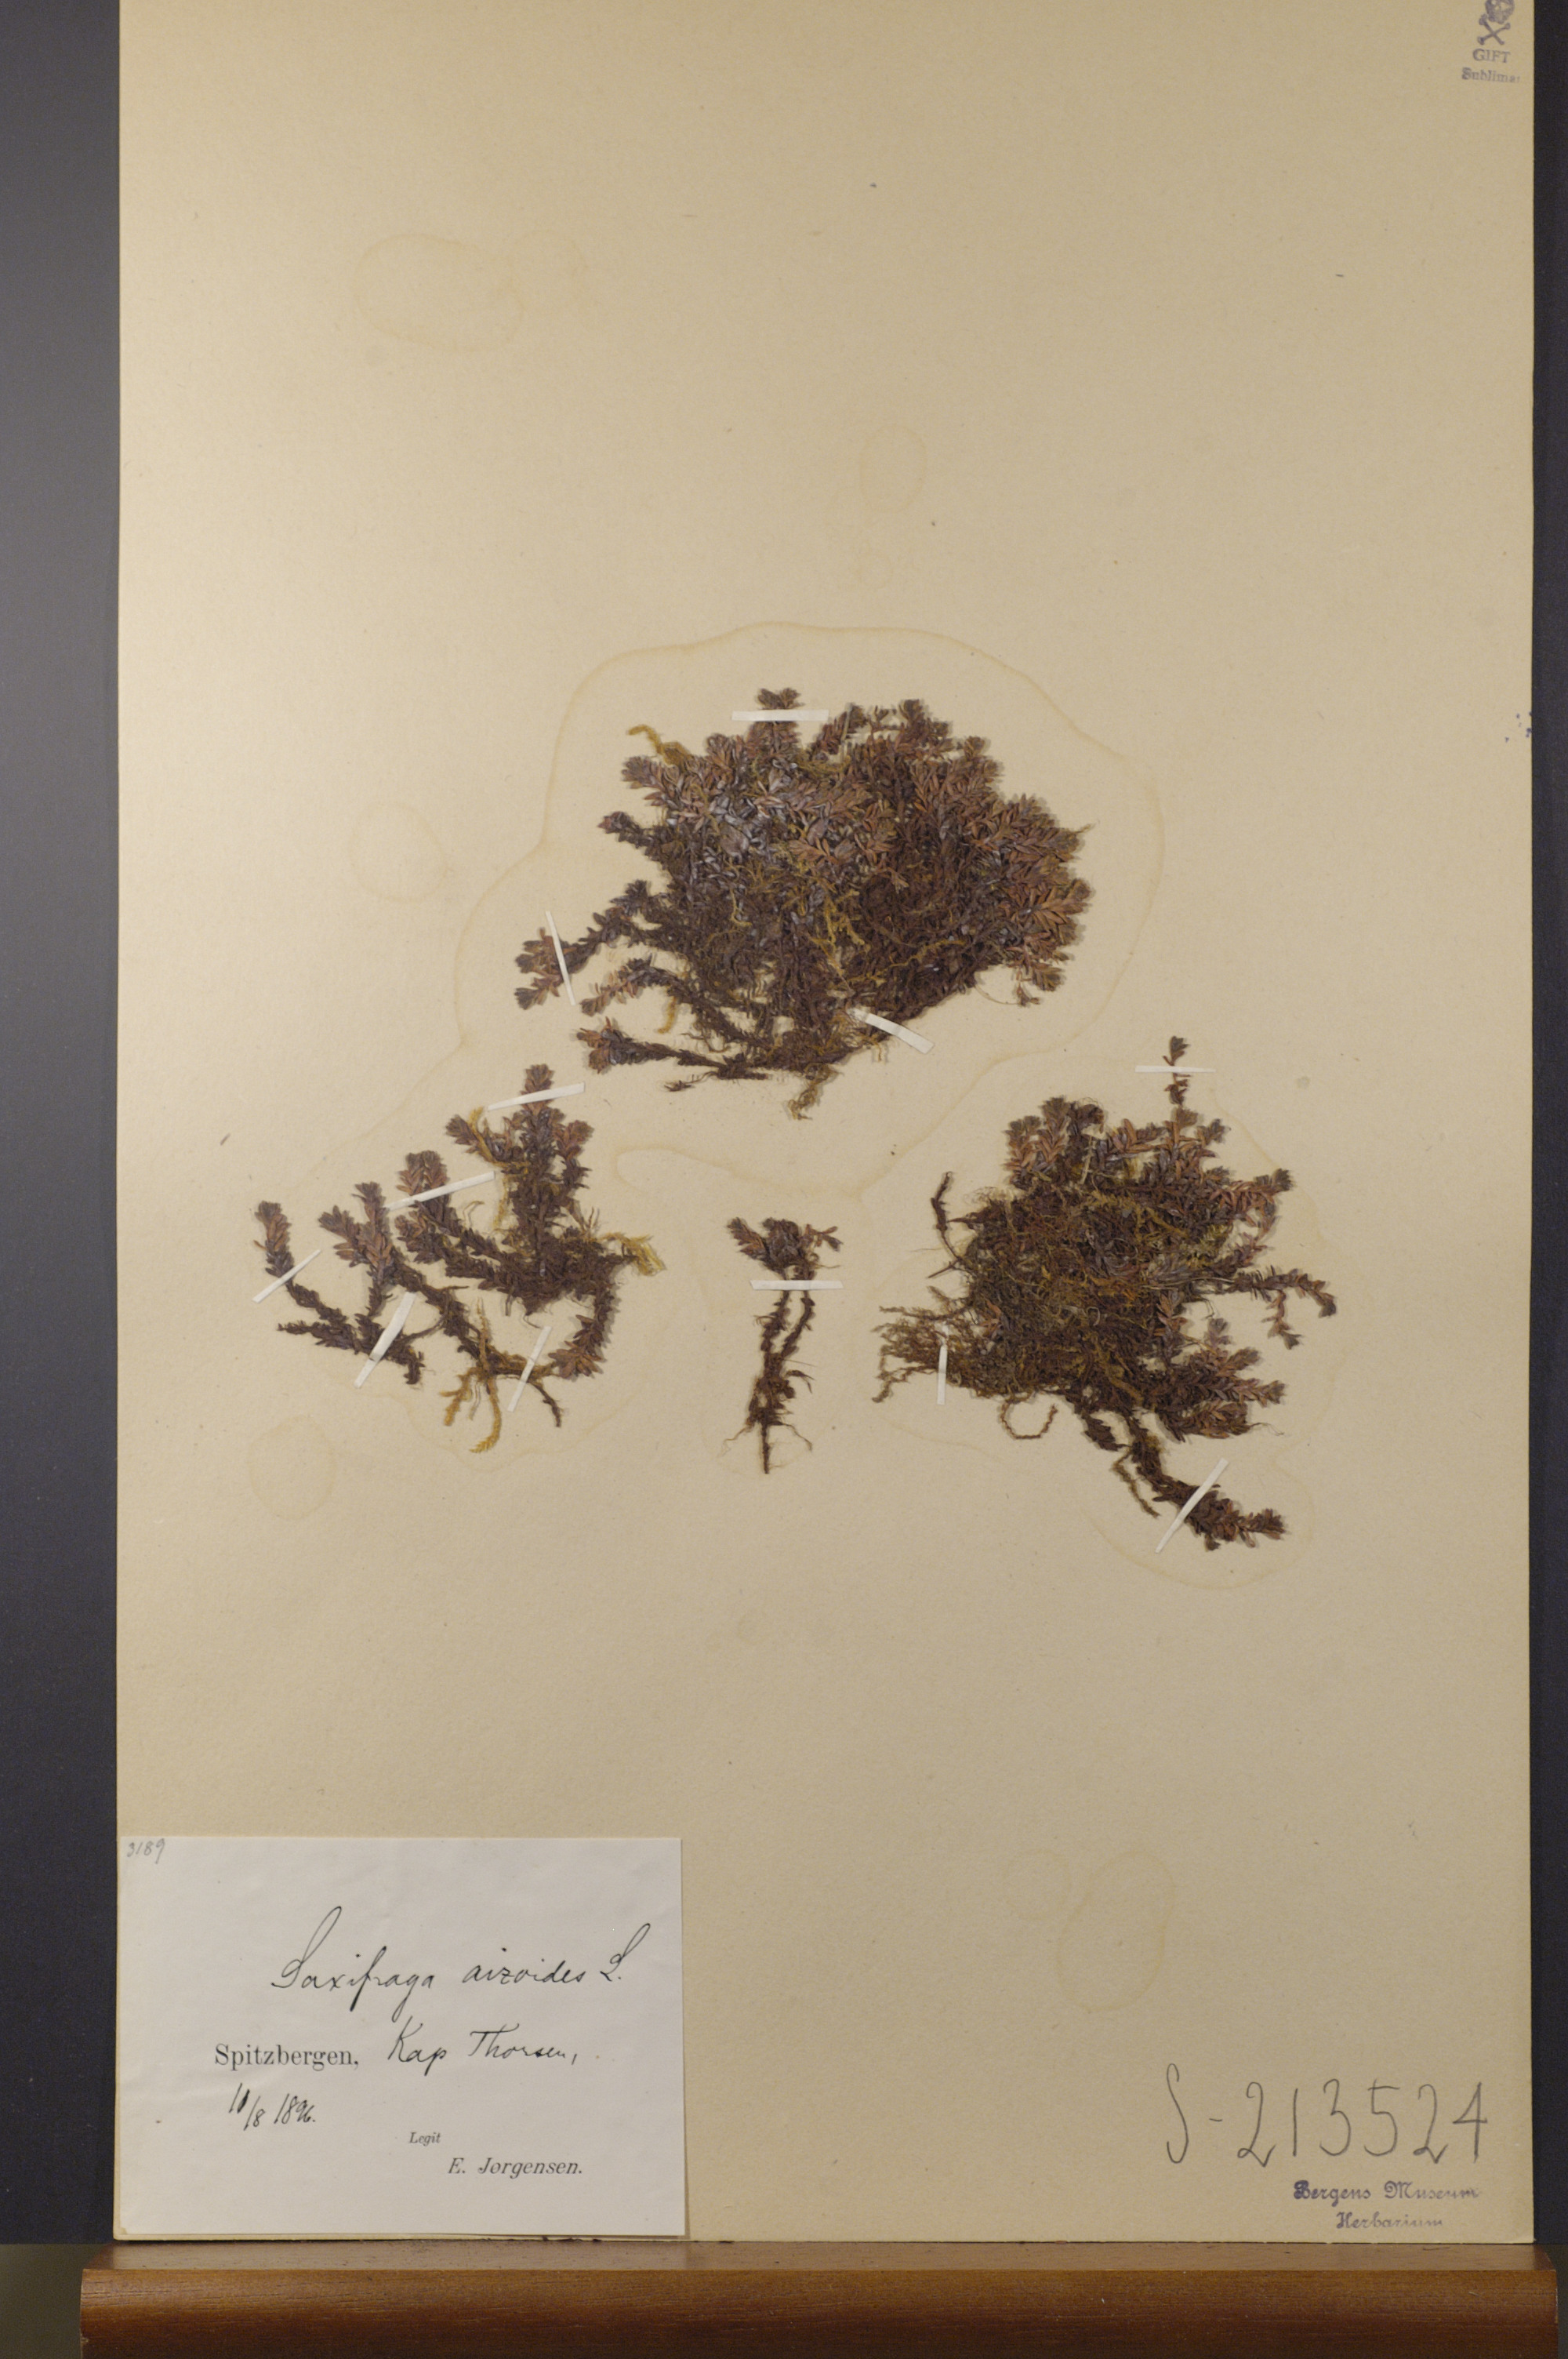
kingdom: Plantae
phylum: Tracheophyta
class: Magnoliopsida
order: Saxifragales
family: Saxifragaceae
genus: Saxifraga
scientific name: Saxifraga aizoides
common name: Yellow mountain saxifrage
